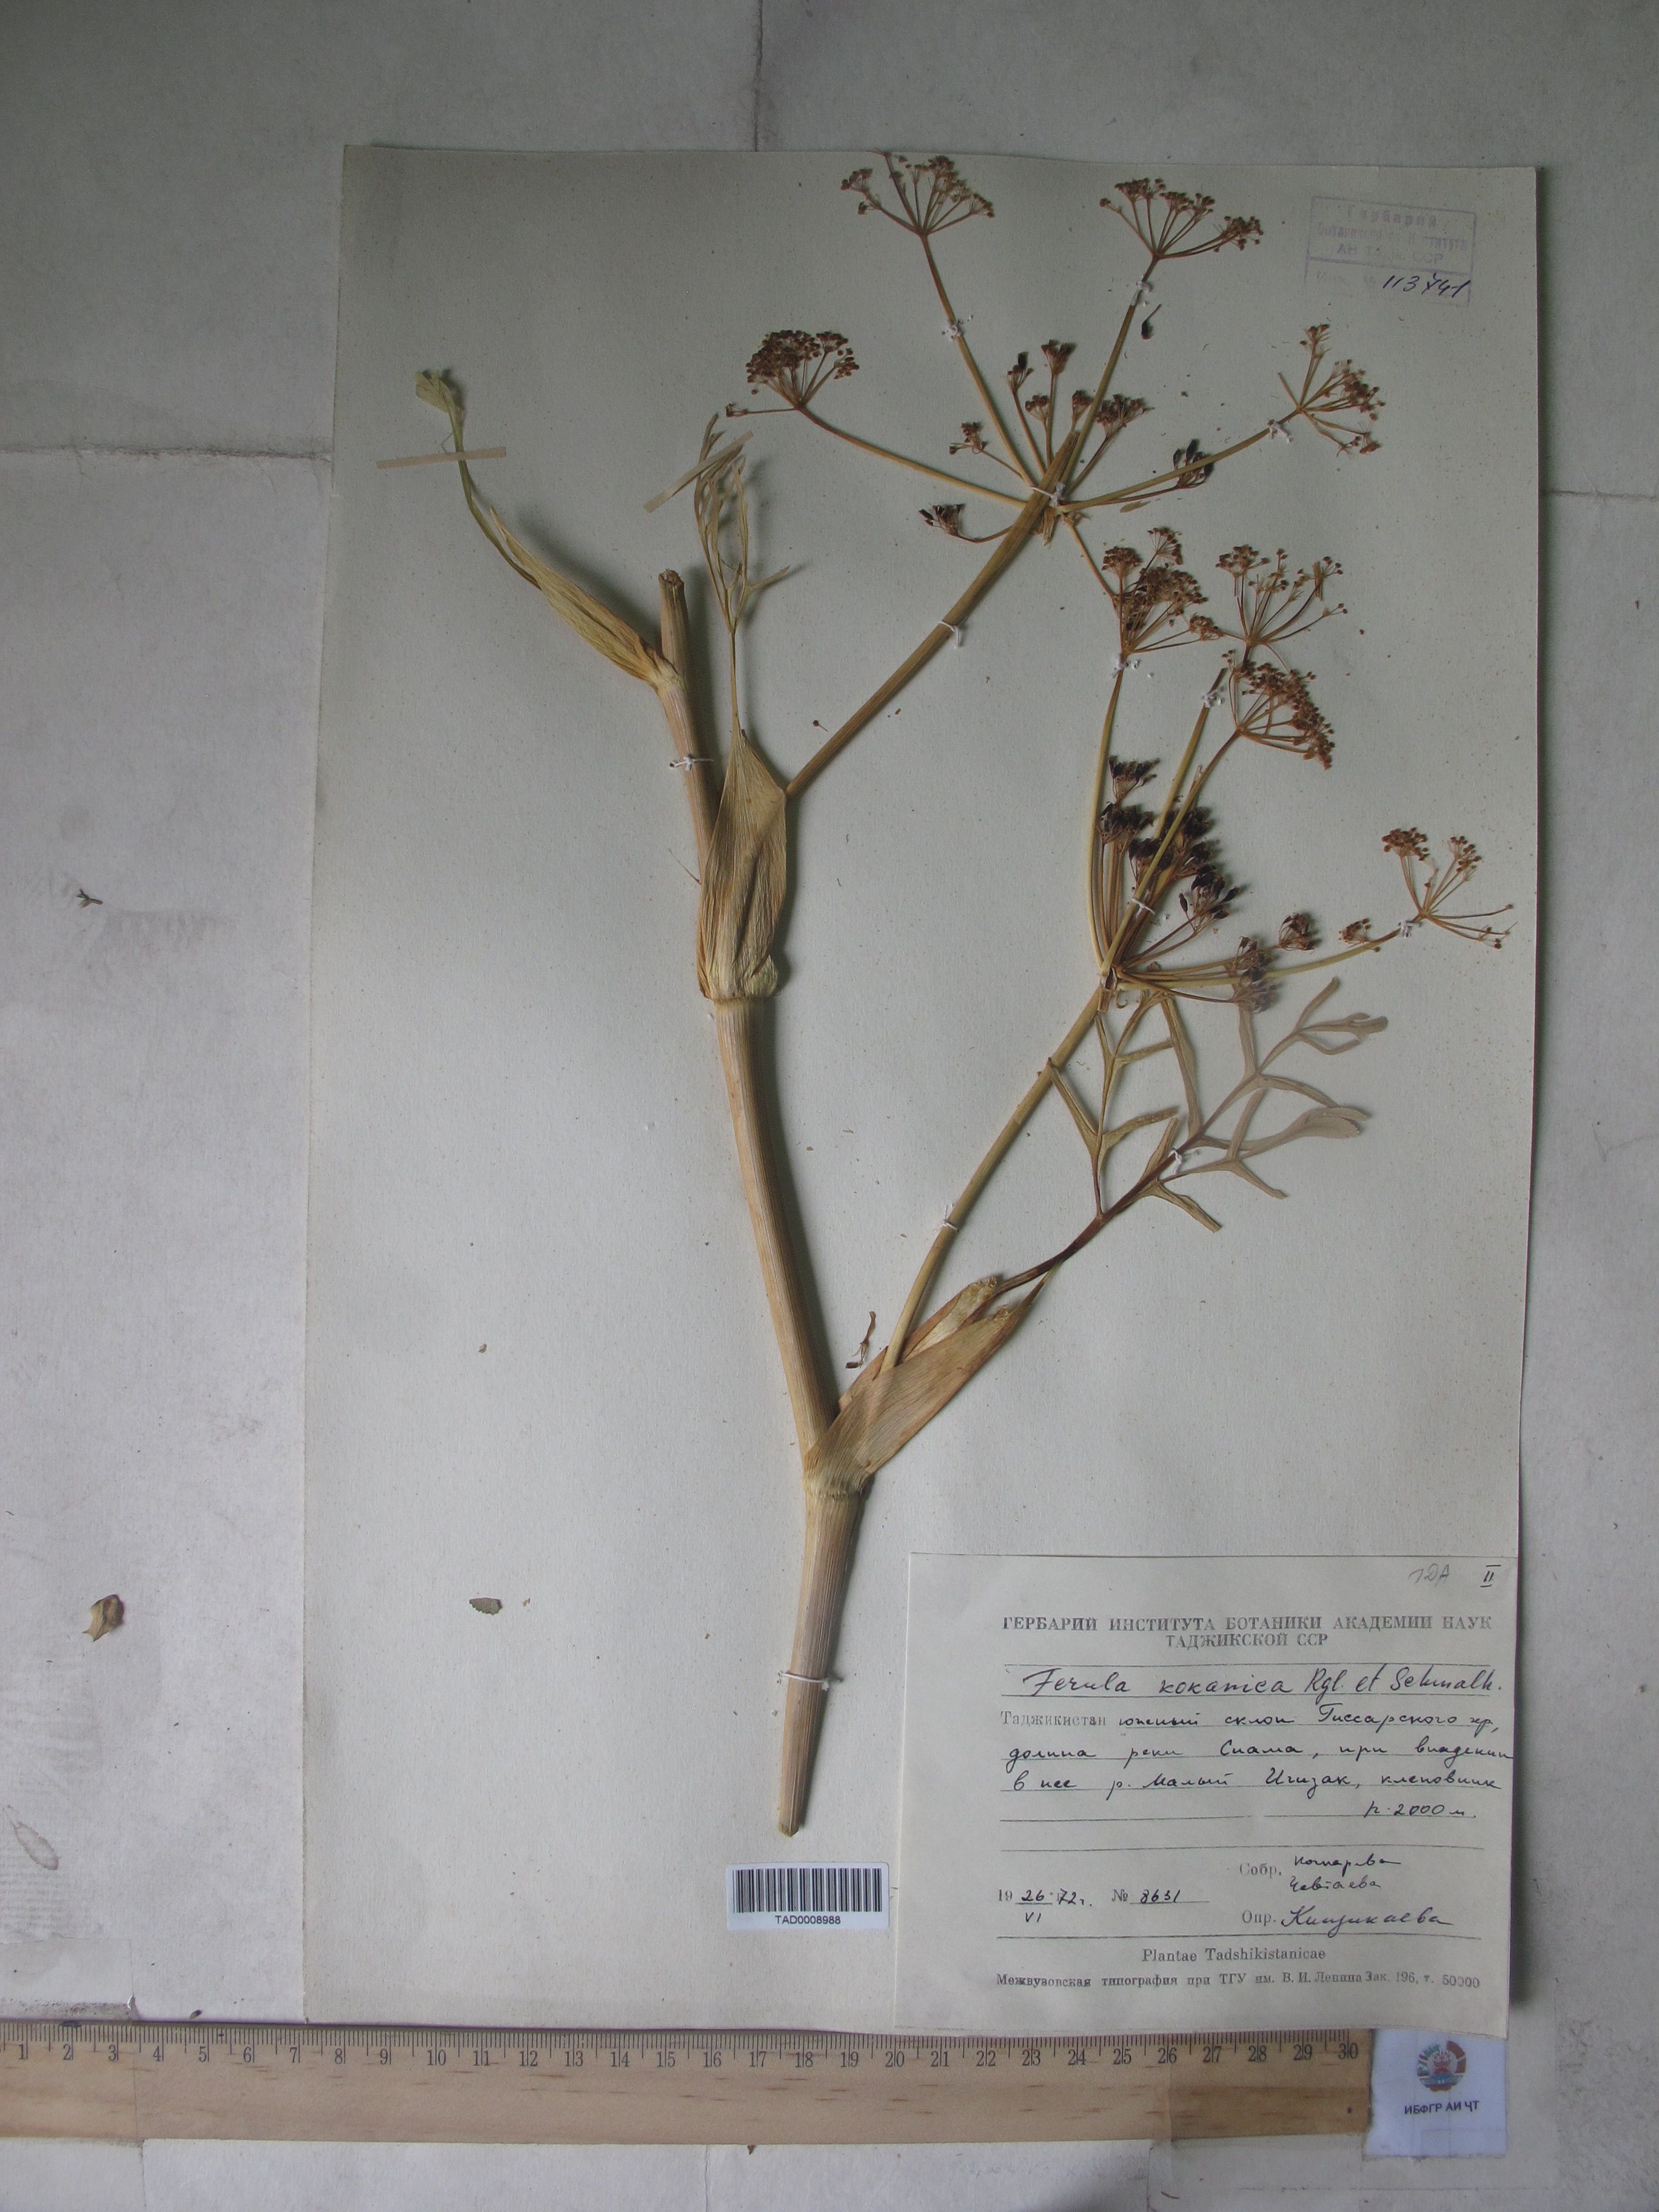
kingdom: Plantae
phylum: Tracheophyta
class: Magnoliopsida
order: Apiales
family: Apiaceae
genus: Ferula
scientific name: Ferula kokanica
